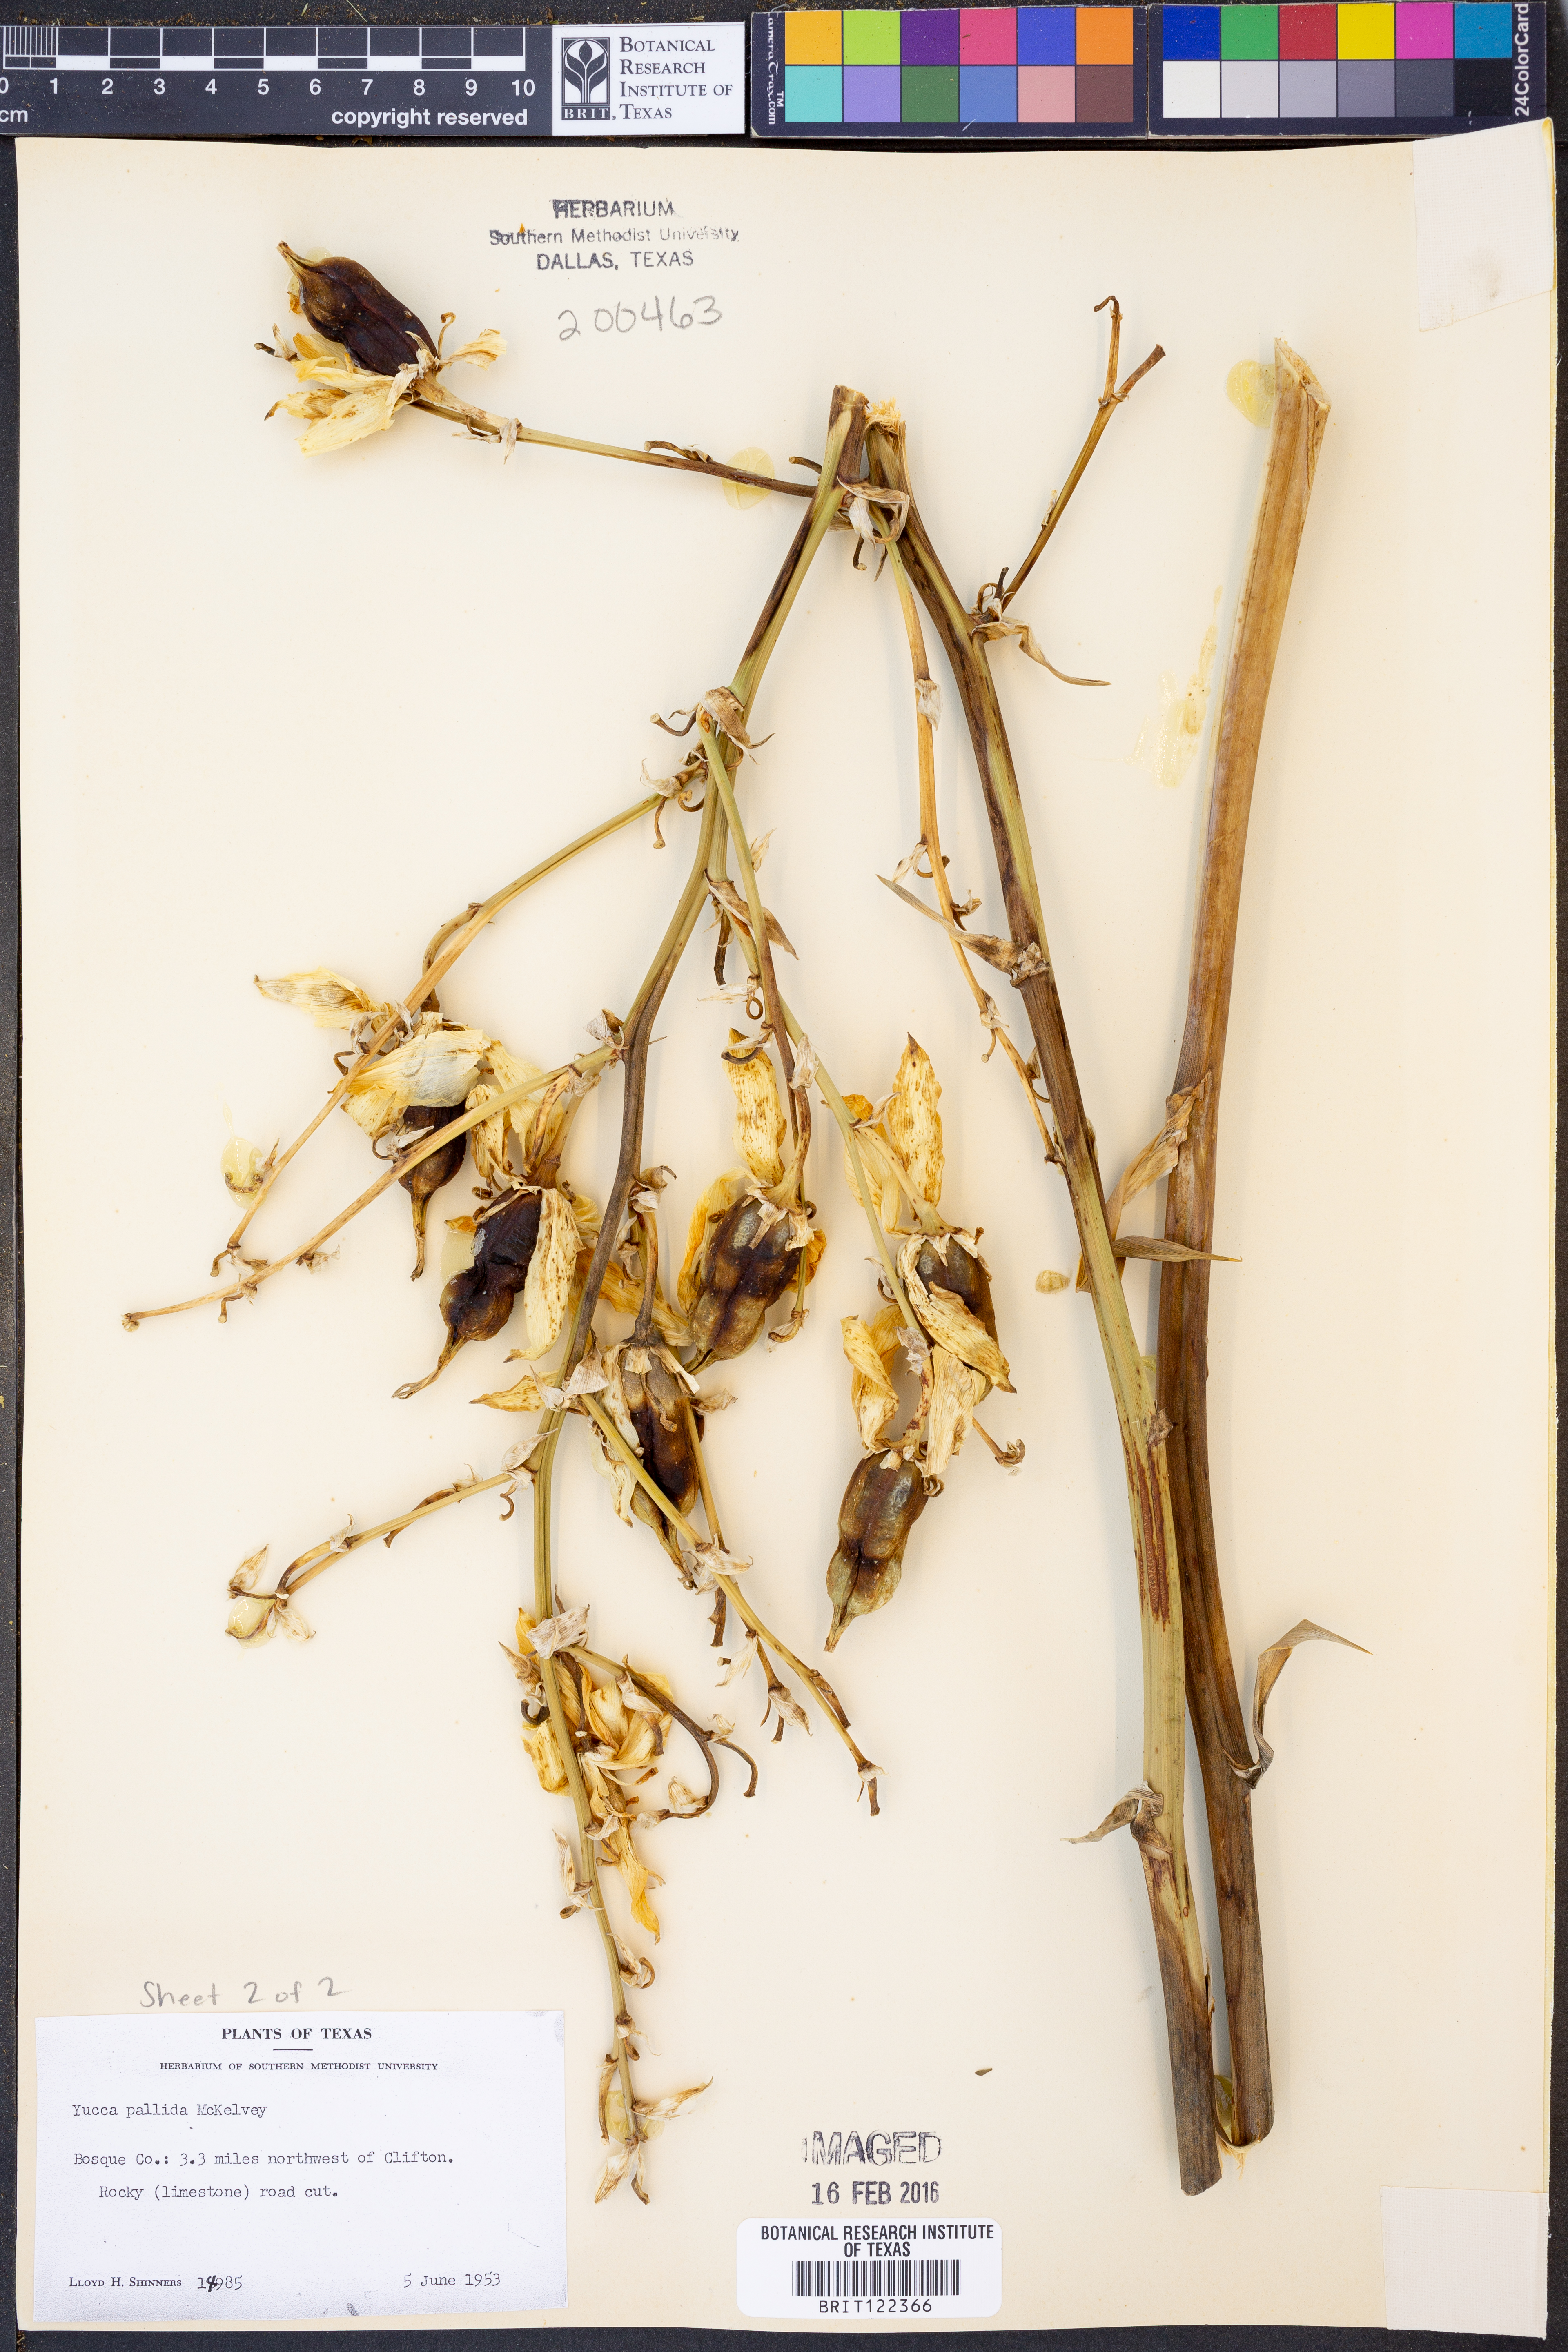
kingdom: Plantae
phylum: Tracheophyta
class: Liliopsida
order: Asparagales
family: Asparagaceae
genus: Yucca
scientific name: Yucca pallida
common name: Pale leaf yucca
